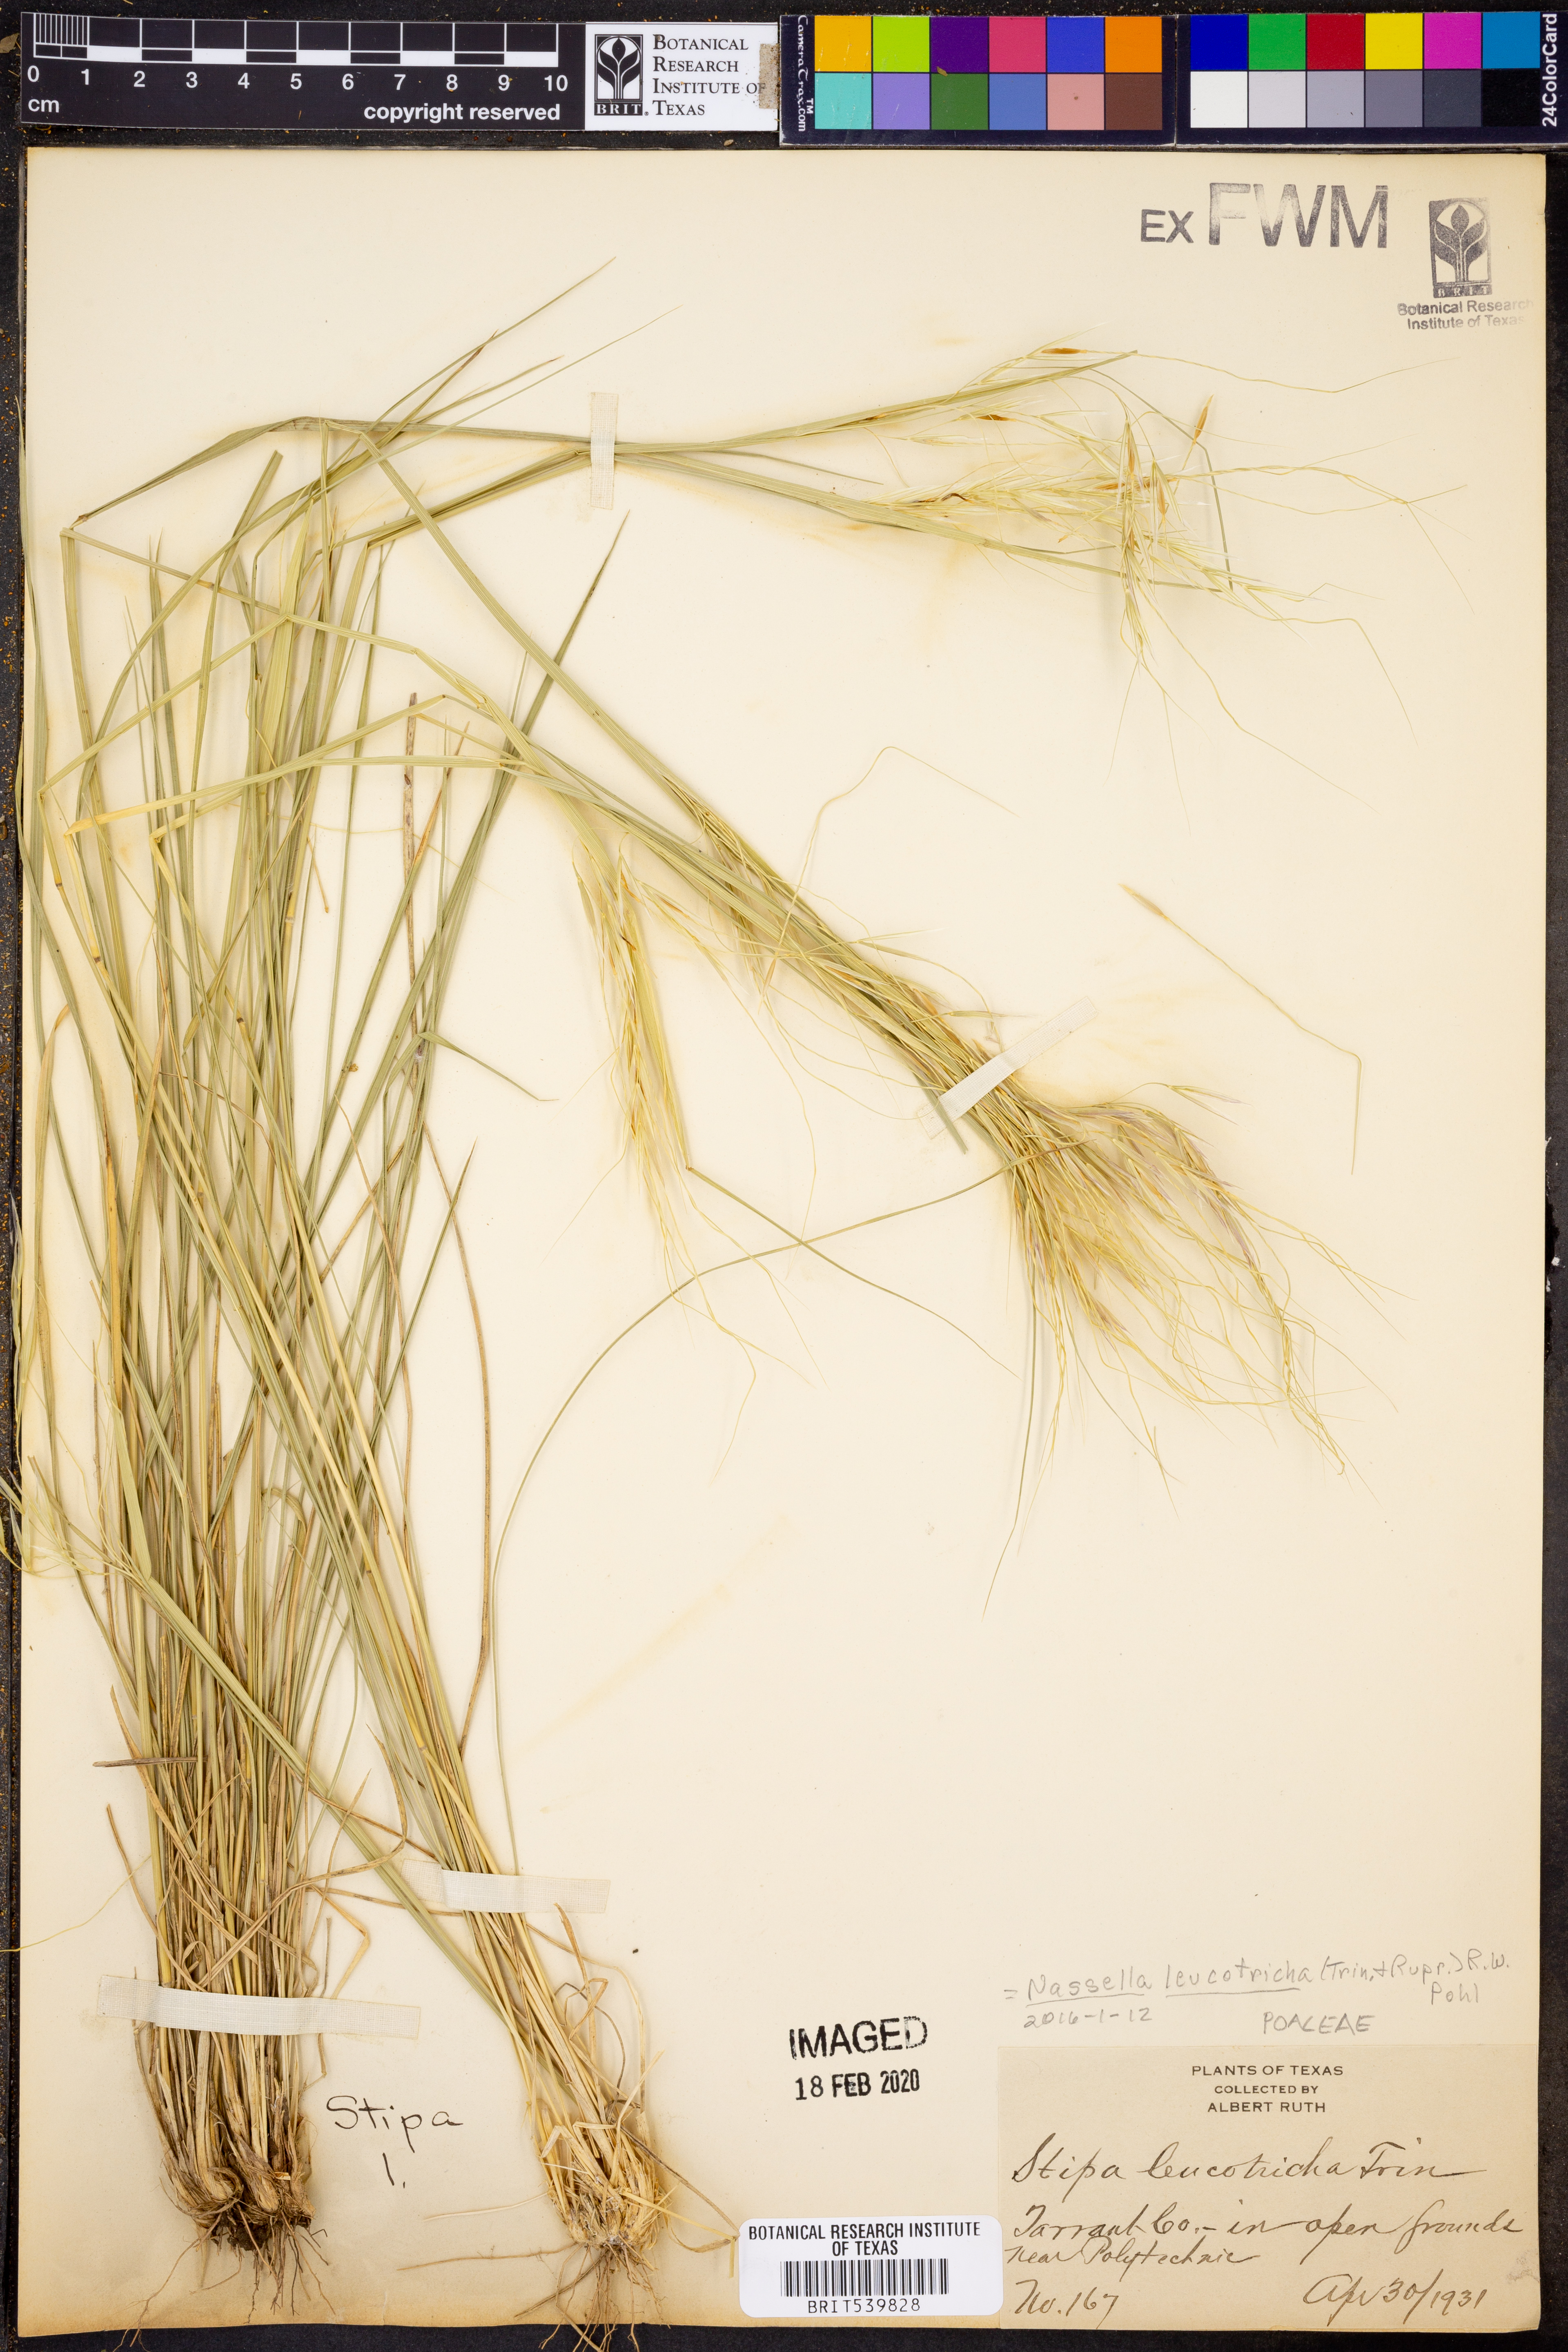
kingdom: Plantae
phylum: Tracheophyta
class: Liliopsida
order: Poales
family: Poaceae
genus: Nassella
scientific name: Nassella leucotricha
